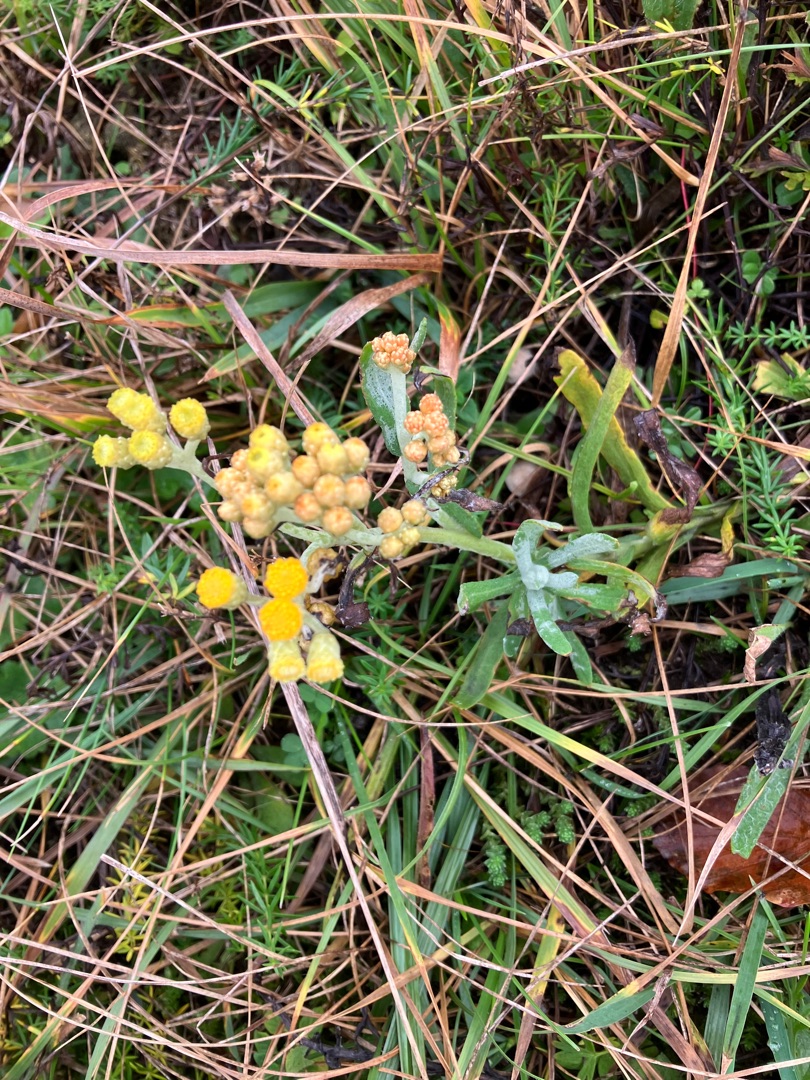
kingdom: Plantae
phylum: Tracheophyta
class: Magnoliopsida
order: Asterales
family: Asteraceae
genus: Helichrysum
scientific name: Helichrysum arenarium
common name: Gul evighedsblomst
